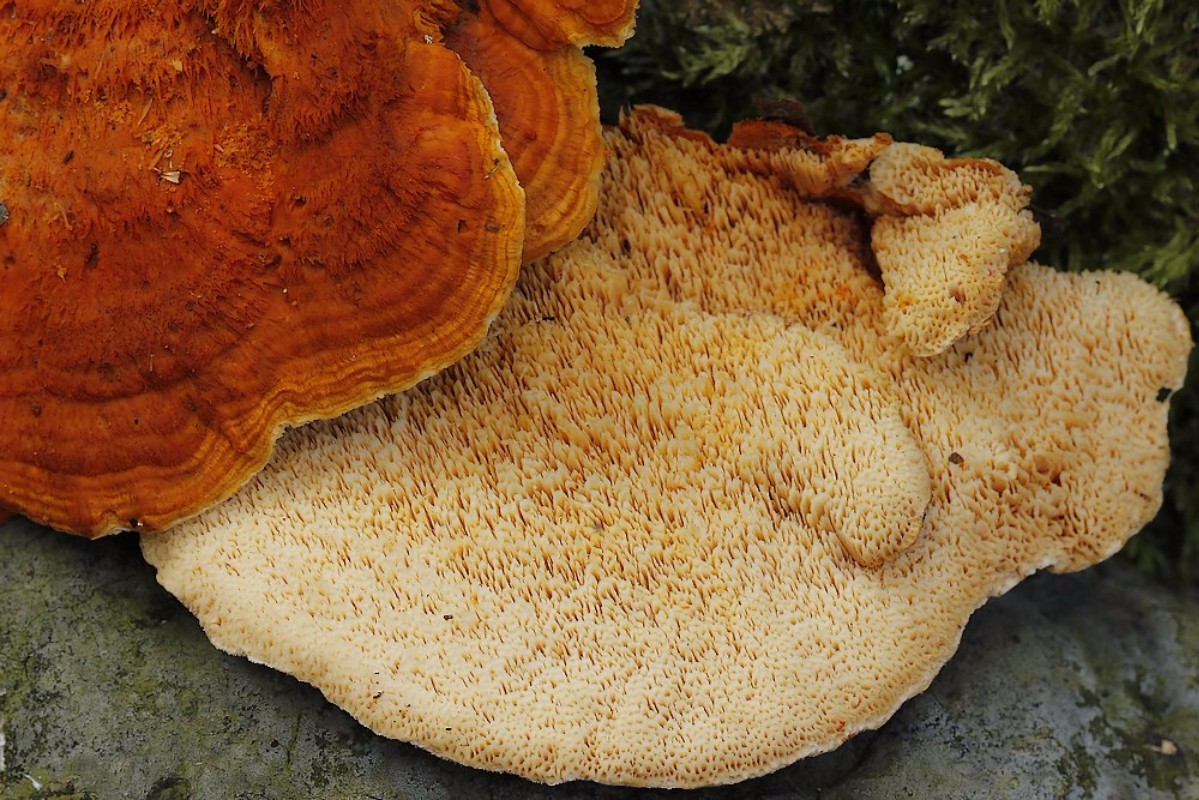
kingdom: Fungi
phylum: Basidiomycota
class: Agaricomycetes
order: Polyporales
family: Pycnoporellaceae
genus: Pycnoporellus
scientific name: Pycnoporellus fulgens
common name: flammeporesvamp
